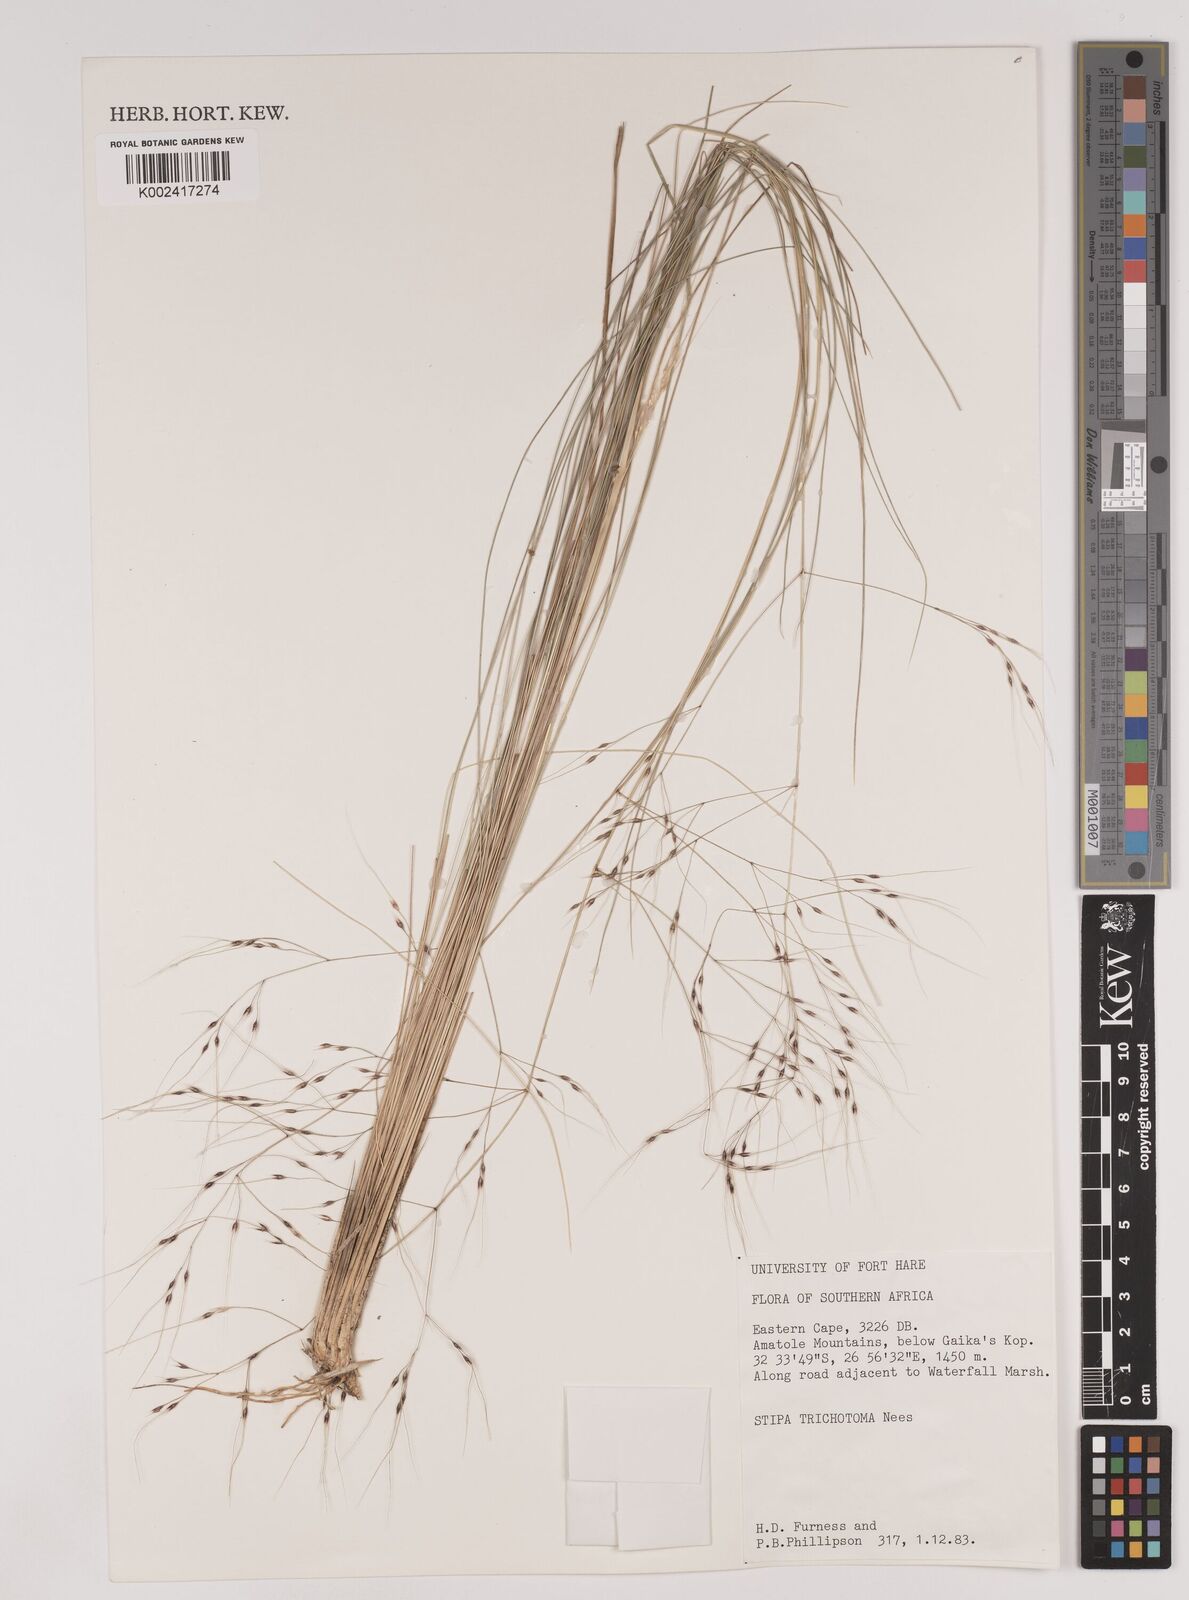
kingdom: Plantae
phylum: Tracheophyta
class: Liliopsida
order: Poales
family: Poaceae
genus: Nassella
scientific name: Nassella trichotoma
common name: Serrated tussock grass
